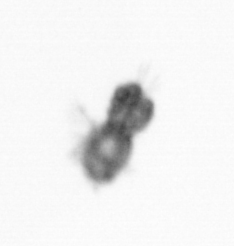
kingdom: Animalia
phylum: Arthropoda
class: Copepoda
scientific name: Copepoda
